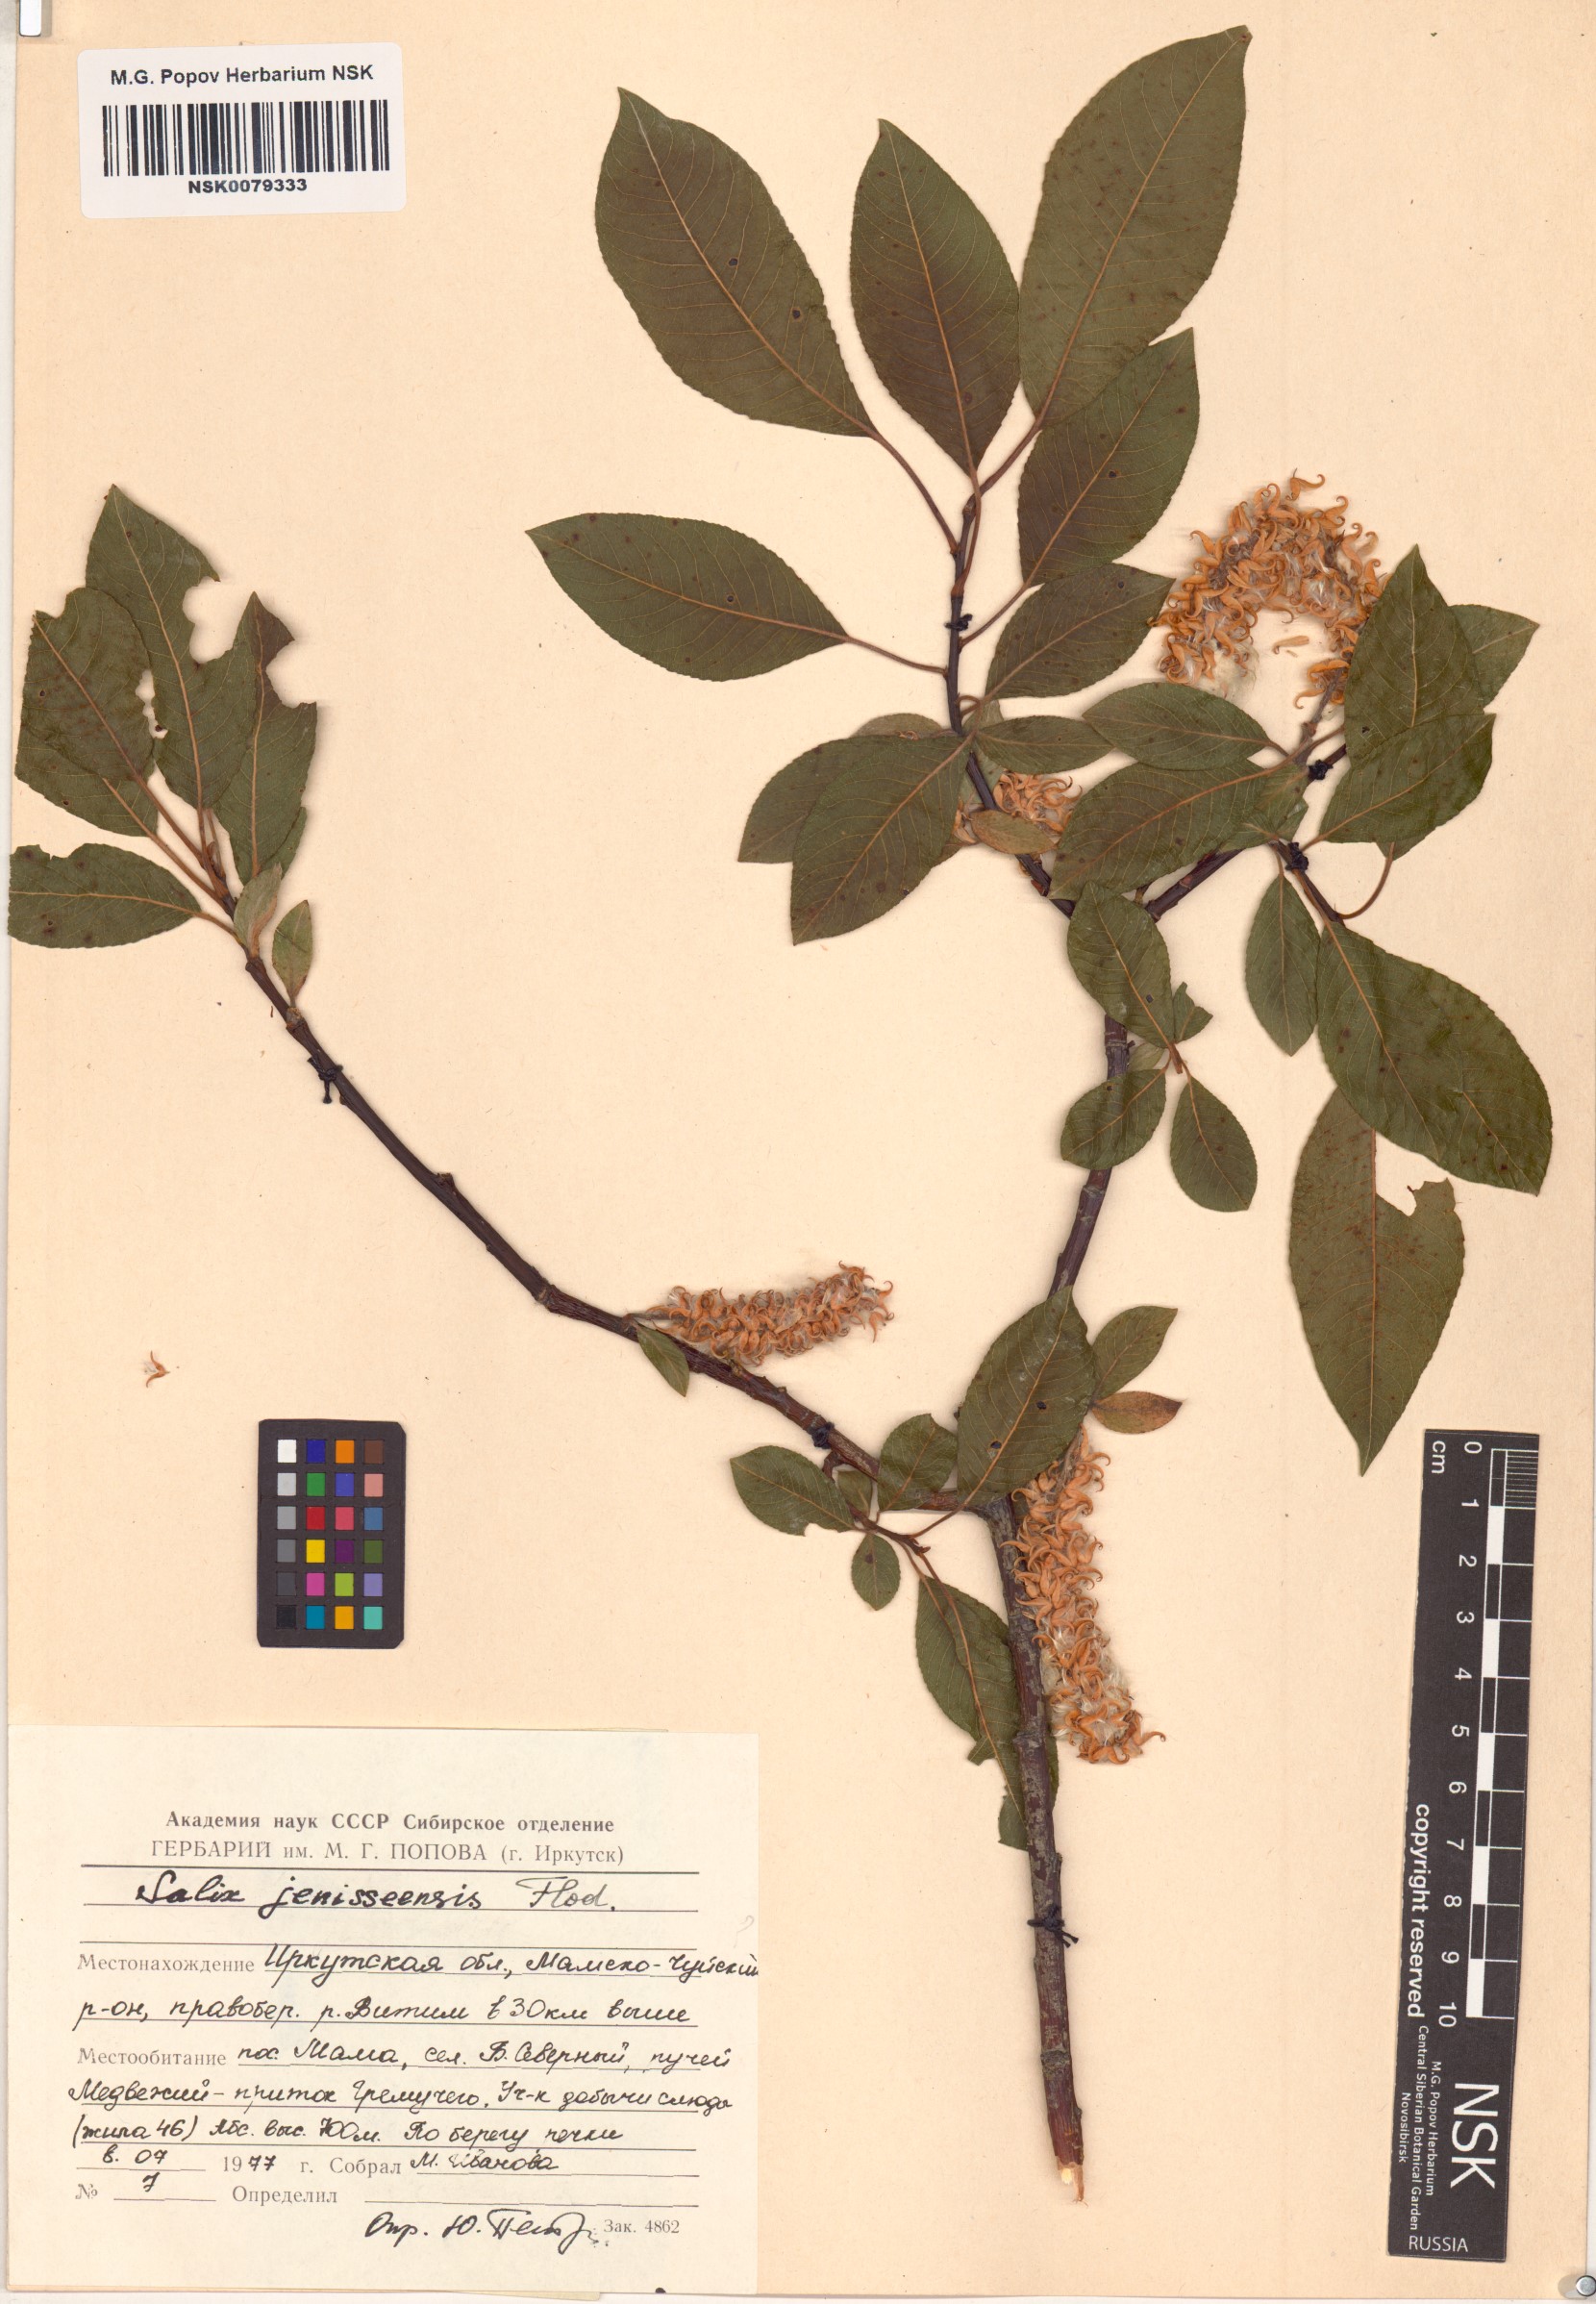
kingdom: Plantae
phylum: Tracheophyta
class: Magnoliopsida
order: Malpighiales
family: Salicaceae
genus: Salix
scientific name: Salix jenisseensis
